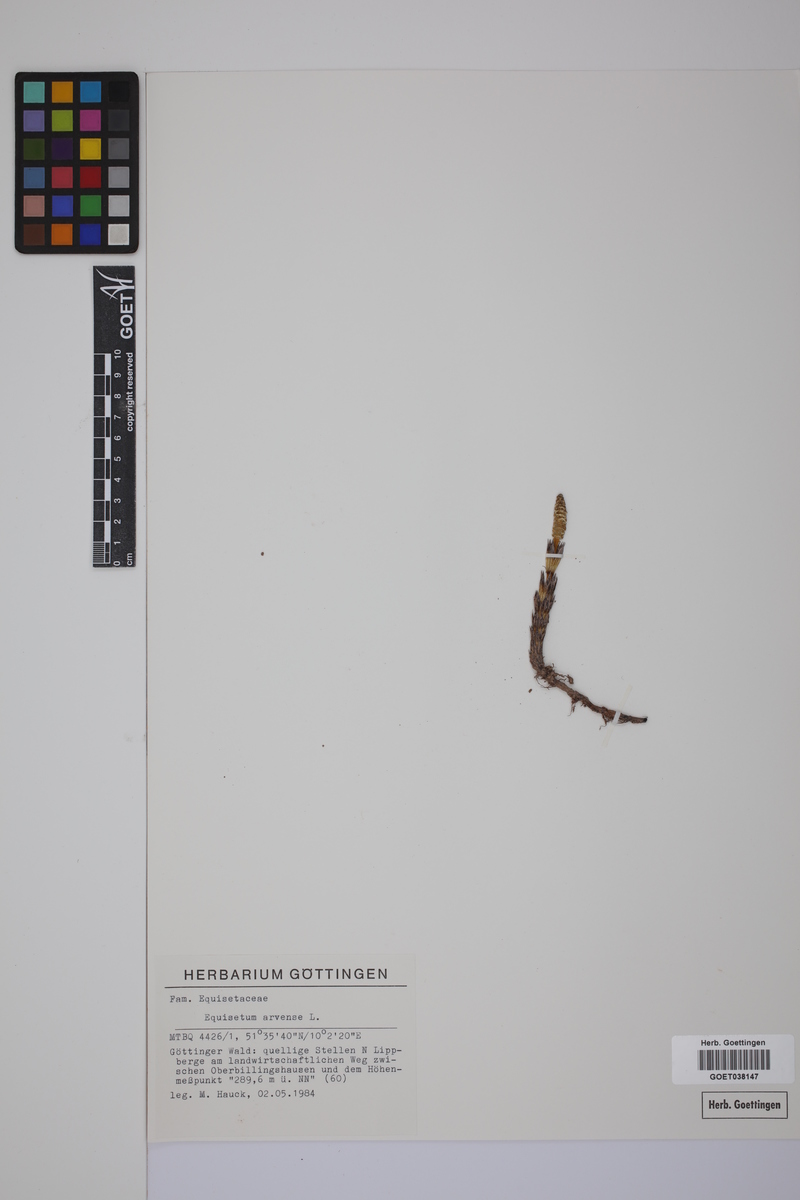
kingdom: Plantae
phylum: Tracheophyta
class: Polypodiopsida
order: Equisetales
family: Equisetaceae
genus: Equisetum
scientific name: Equisetum arvense
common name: Field horsetail
